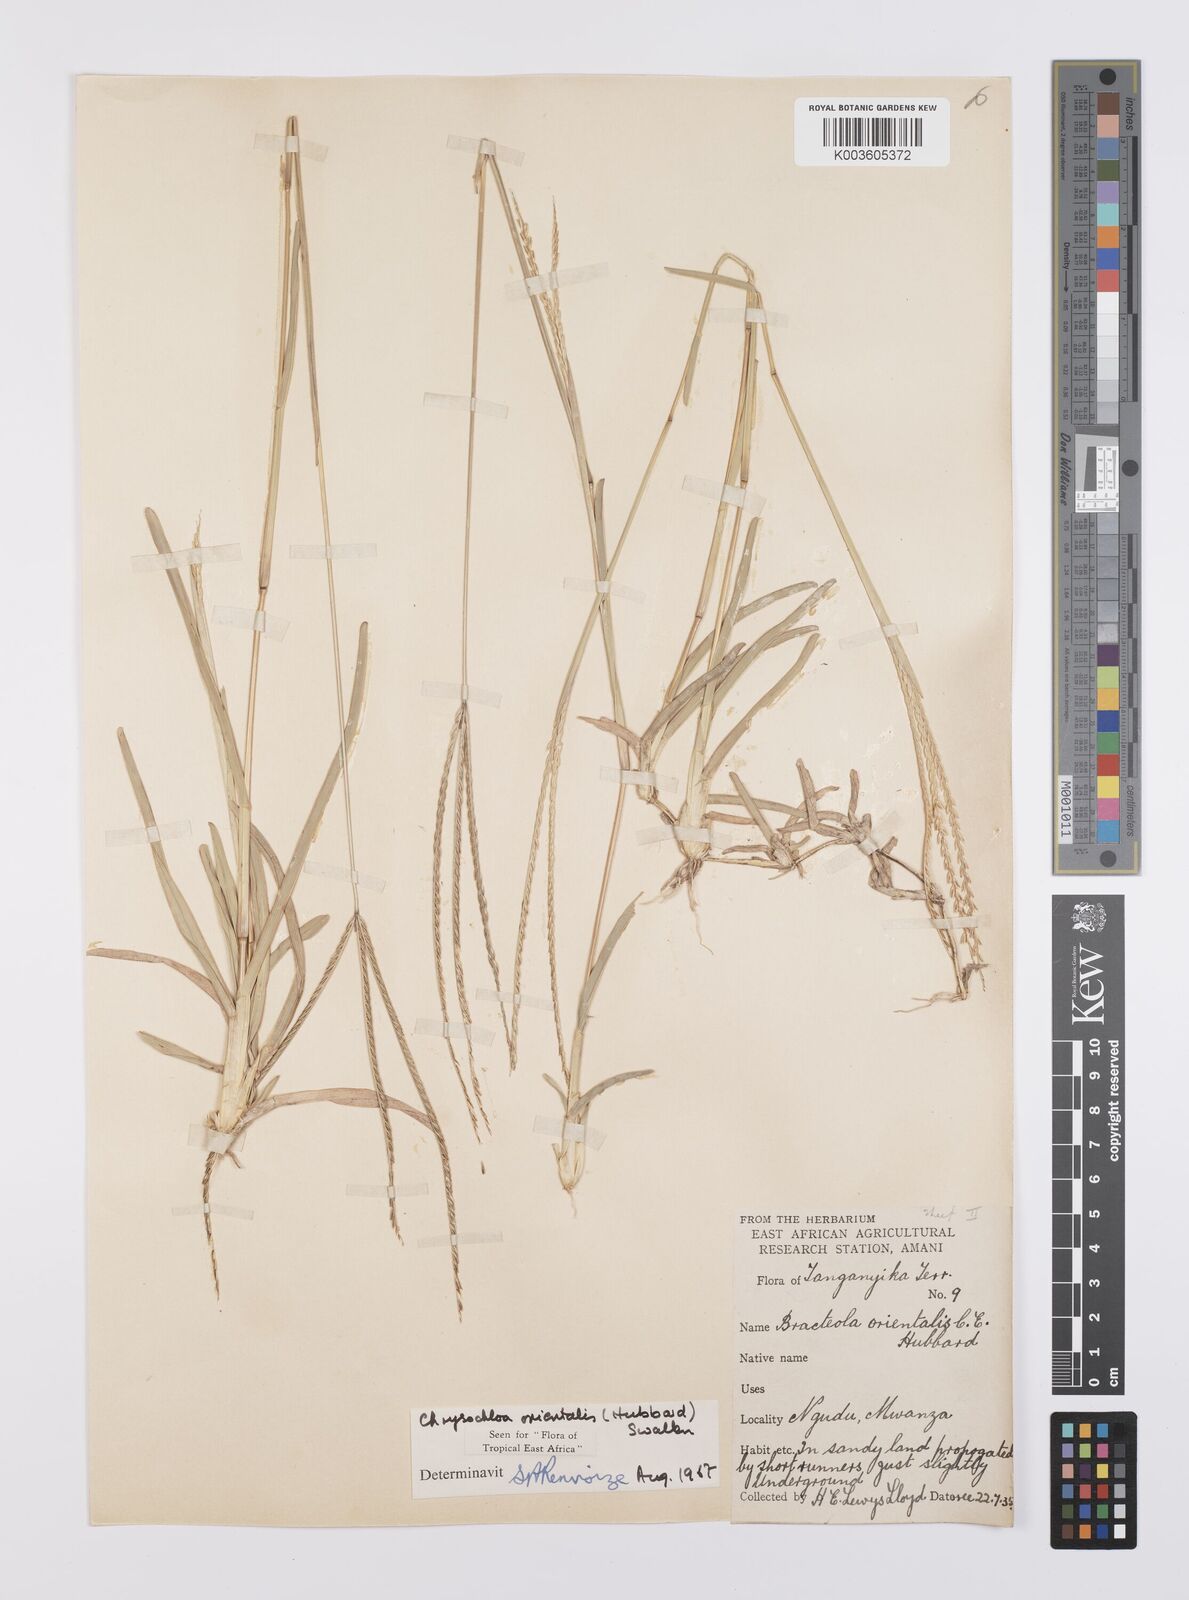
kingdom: Plantae
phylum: Tracheophyta
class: Liliopsida
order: Poales
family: Poaceae
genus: Chrysochloa
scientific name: Chrysochloa orientalis
